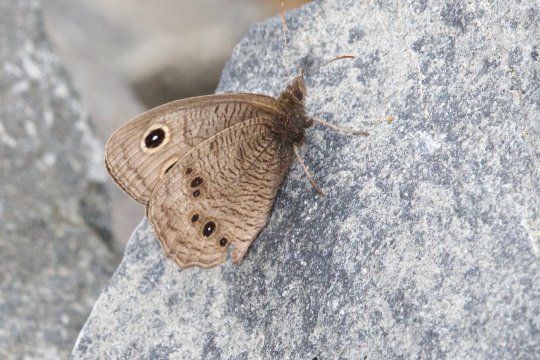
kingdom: Animalia
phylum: Arthropoda
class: Insecta
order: Lepidoptera
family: Nymphalidae
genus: Cercyonis
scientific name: Cercyonis pegala
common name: Common Wood-Nymph
